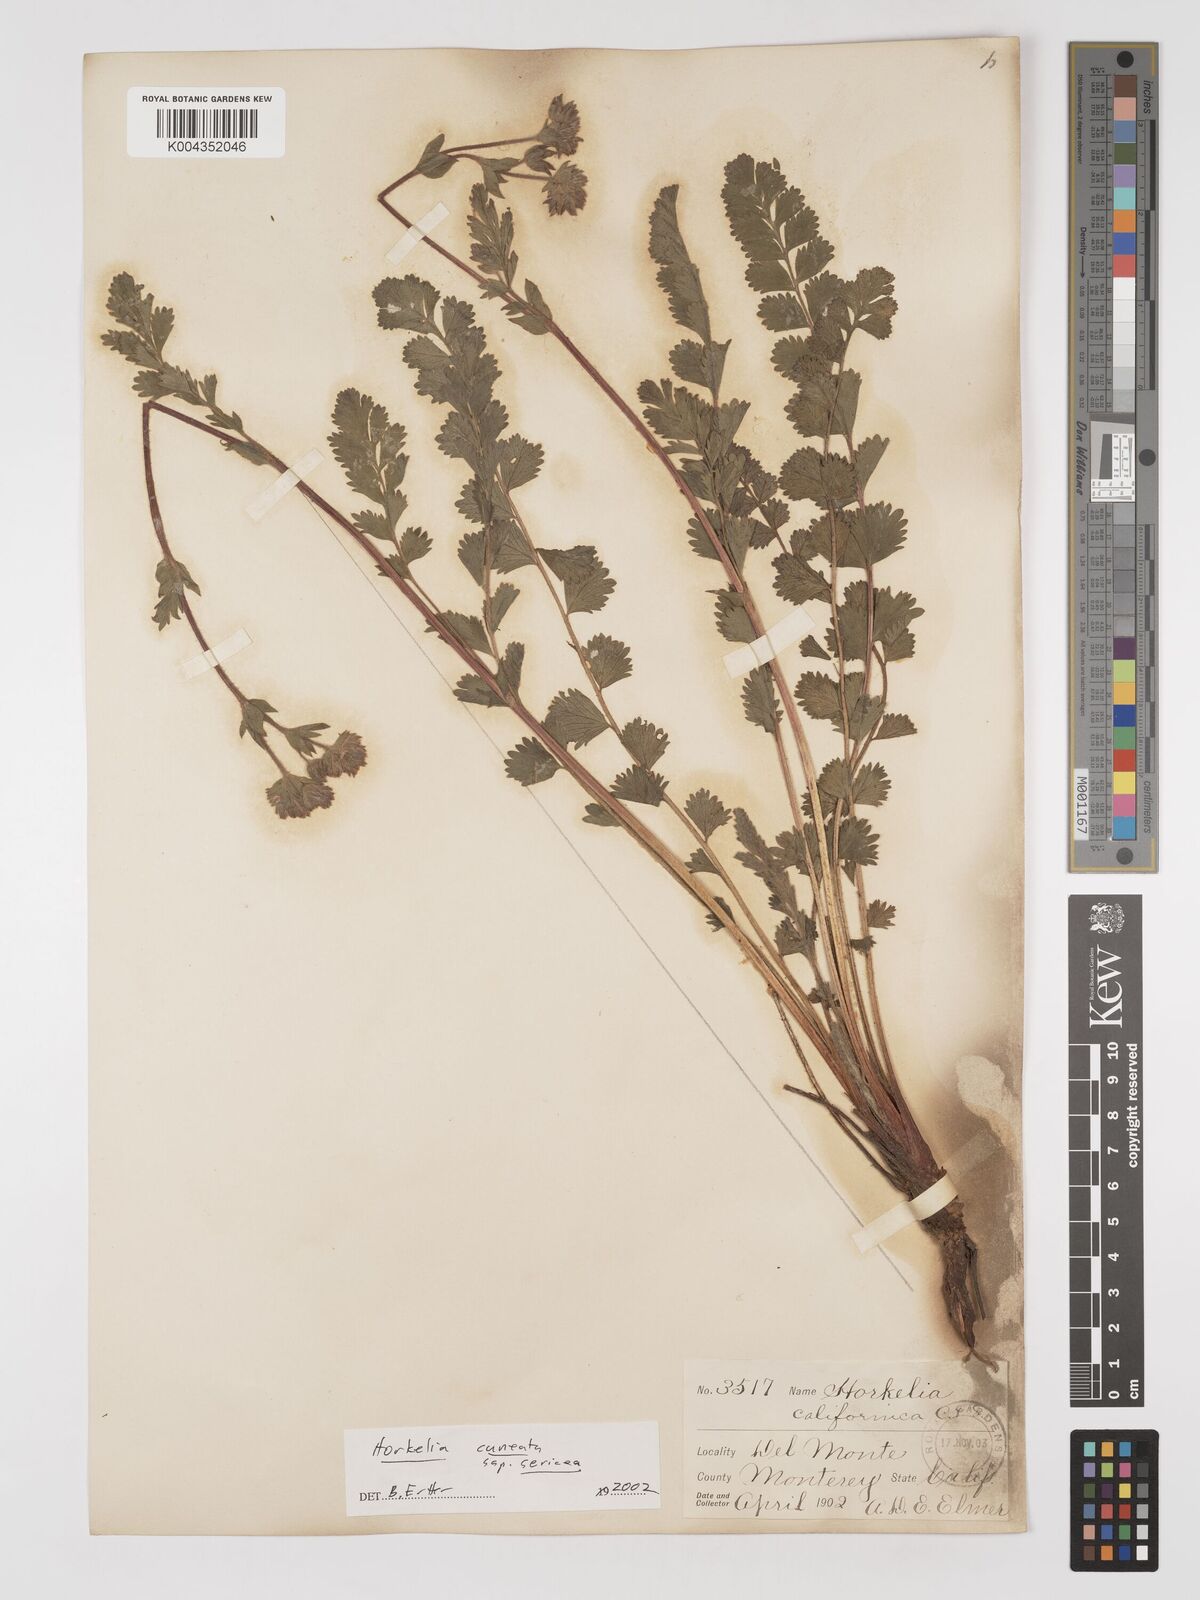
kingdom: Plantae
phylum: Tracheophyta
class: Magnoliopsida
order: Rosales
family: Rosaceae
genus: Potentilla
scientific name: Potentilla lindleyi
